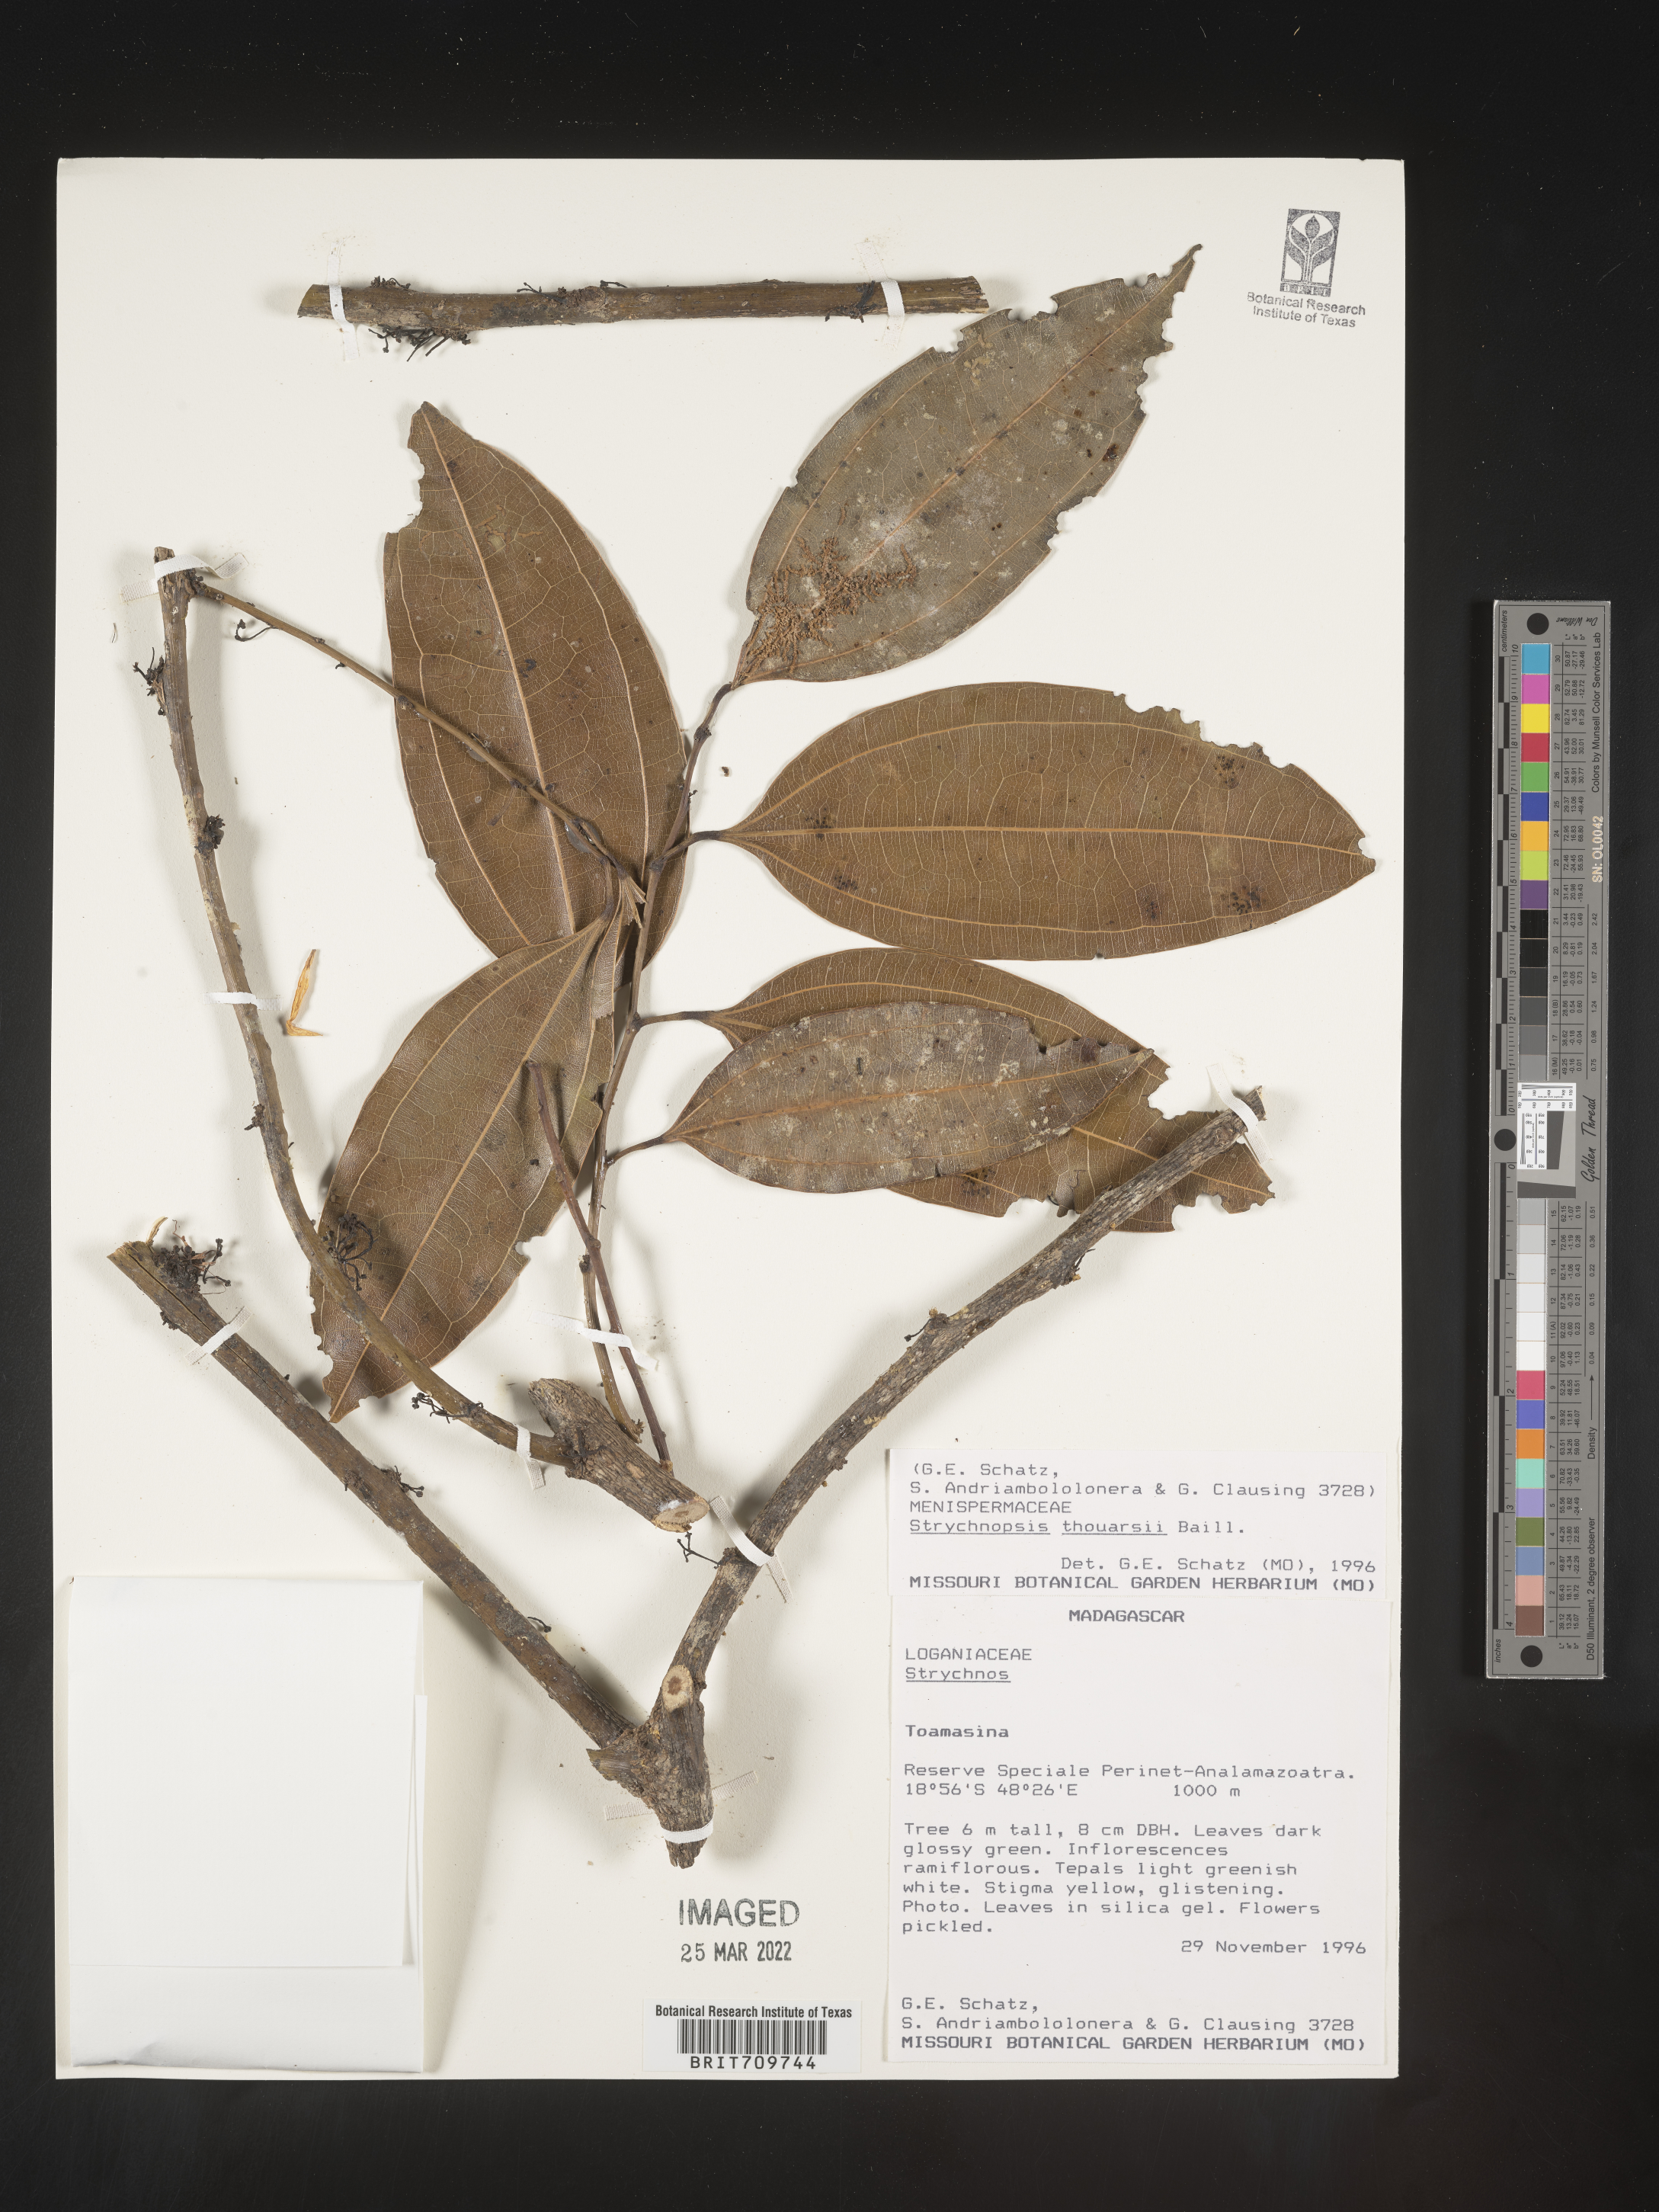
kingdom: Plantae
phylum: Tracheophyta
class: Magnoliopsida
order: Gentianales
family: Loganiaceae
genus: Strychnos
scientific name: Strychnos
